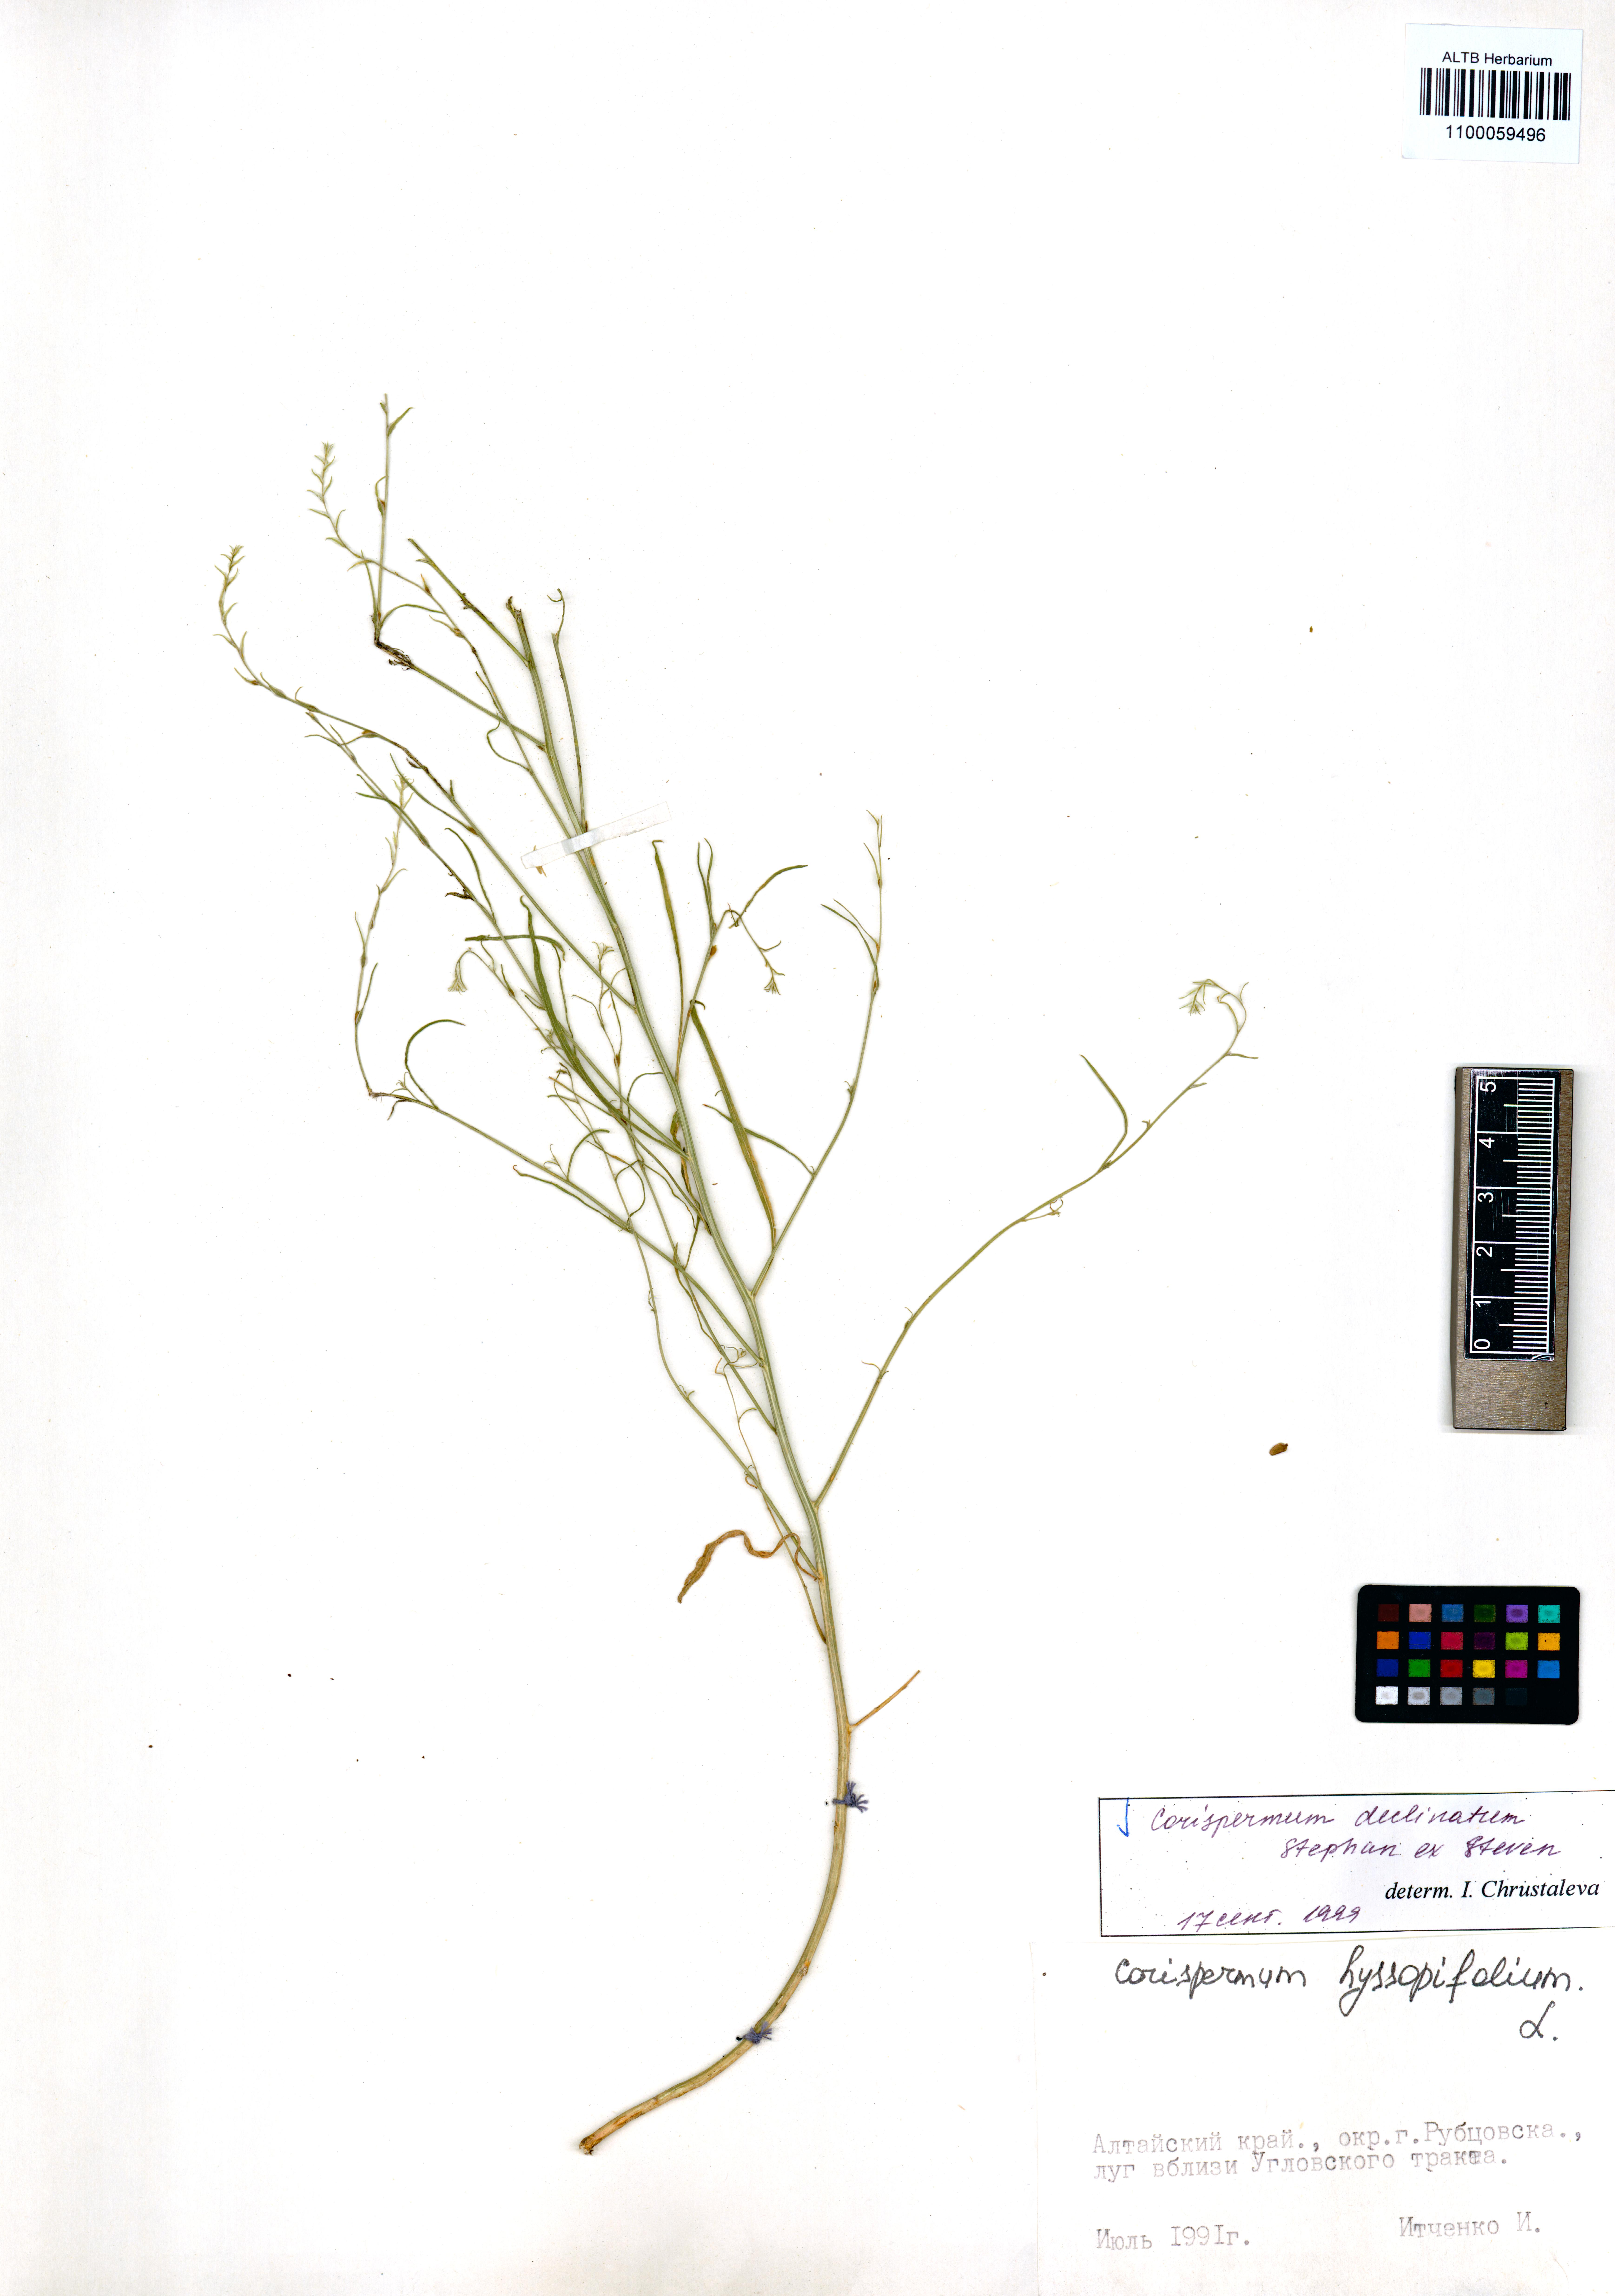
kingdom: Plantae
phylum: Tracheophyta
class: Magnoliopsida
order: Caryophyllales
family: Amaranthaceae
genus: Corispermum
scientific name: Corispermum declinatum
